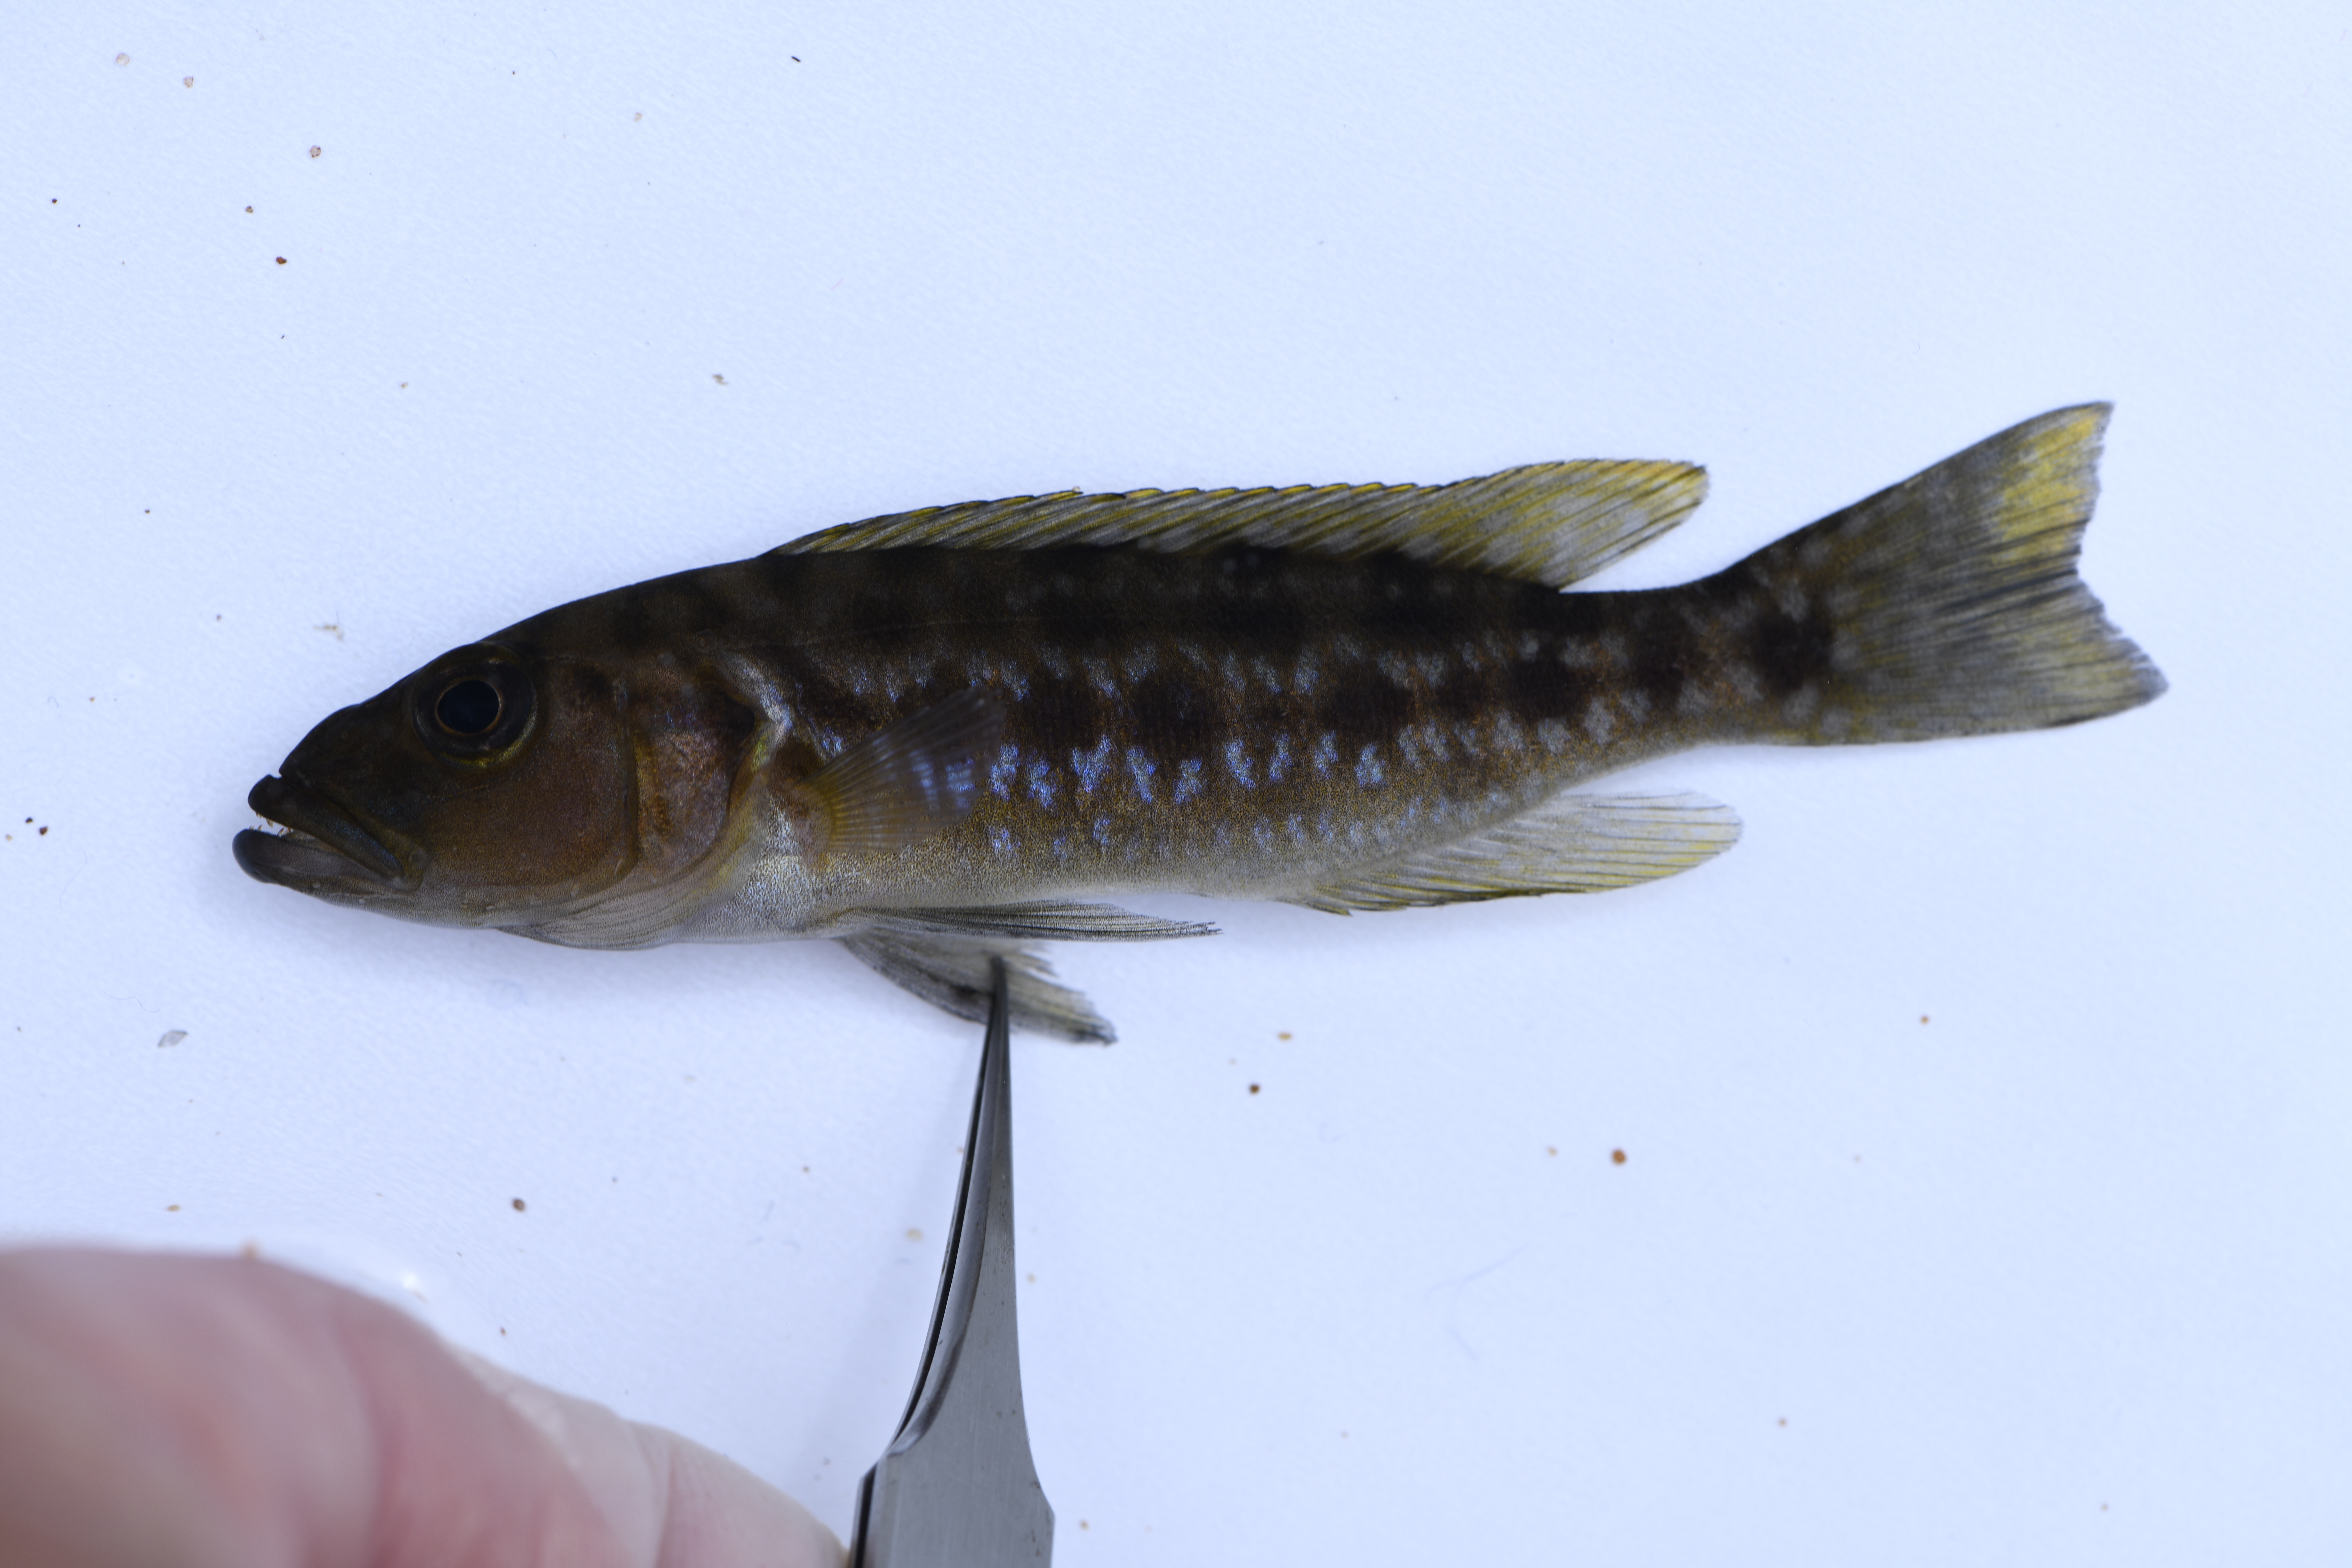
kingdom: Animalia
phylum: Chordata
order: Perciformes
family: Cichlidae
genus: Lepidiolamprologus
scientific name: Lepidiolamprologus elongatus
